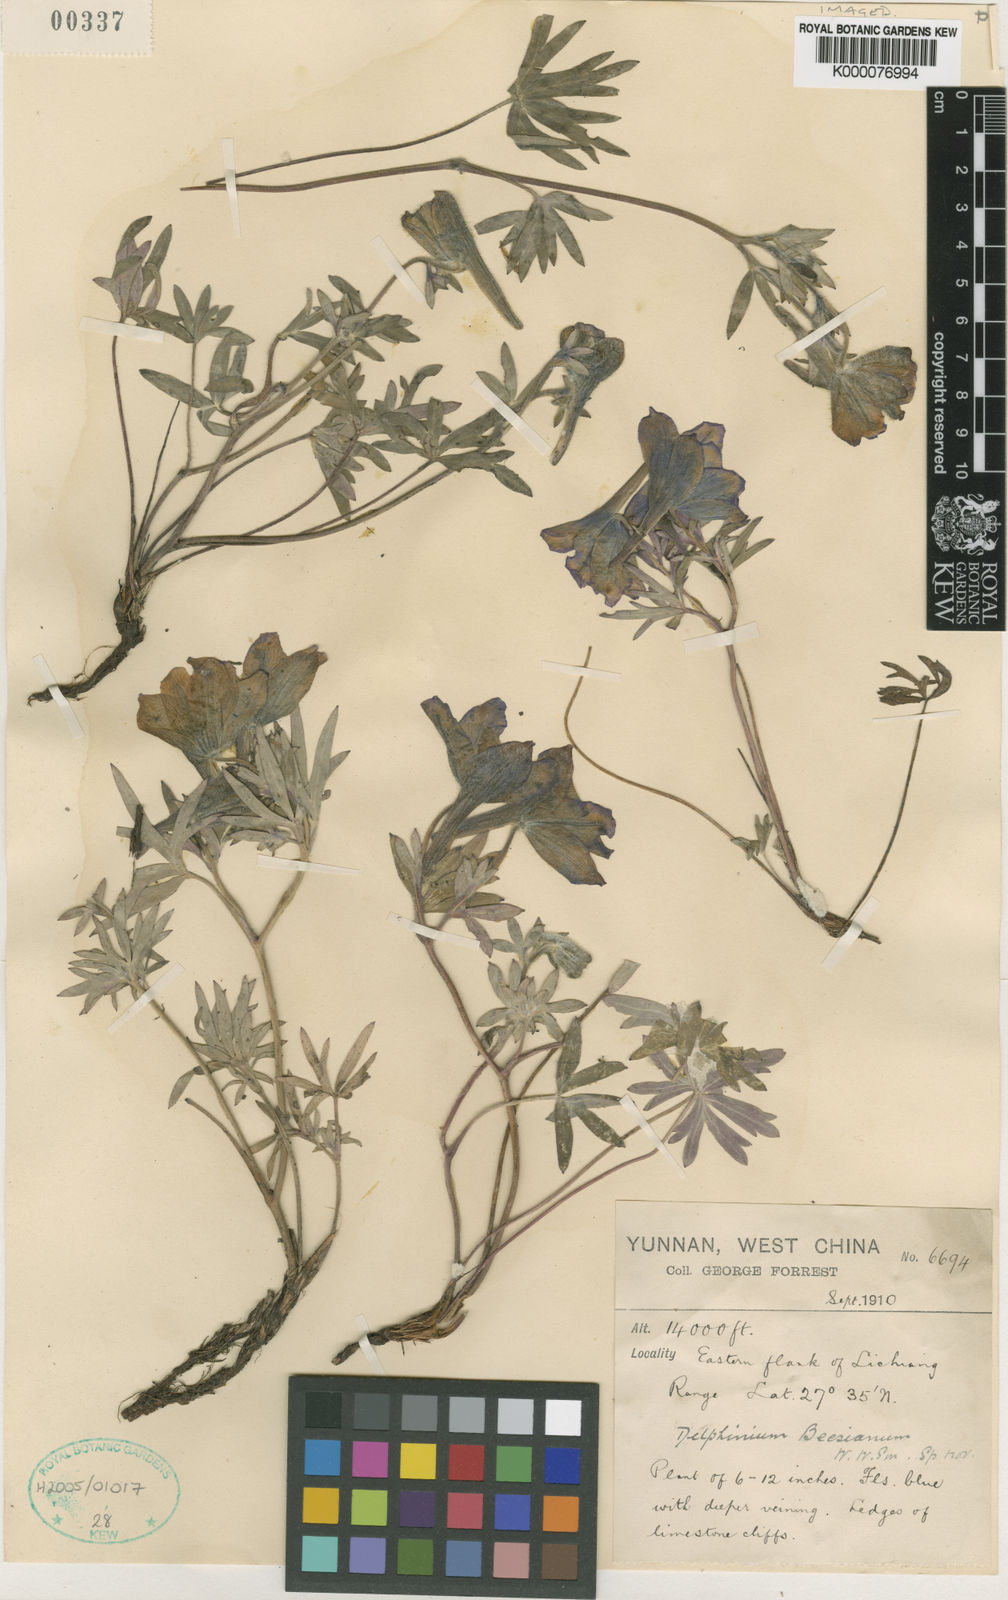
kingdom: Plantae
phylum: Tracheophyta
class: Magnoliopsida
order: Ranunculales
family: Ranunculaceae
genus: Delphinium
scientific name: Delphinium beesianum
